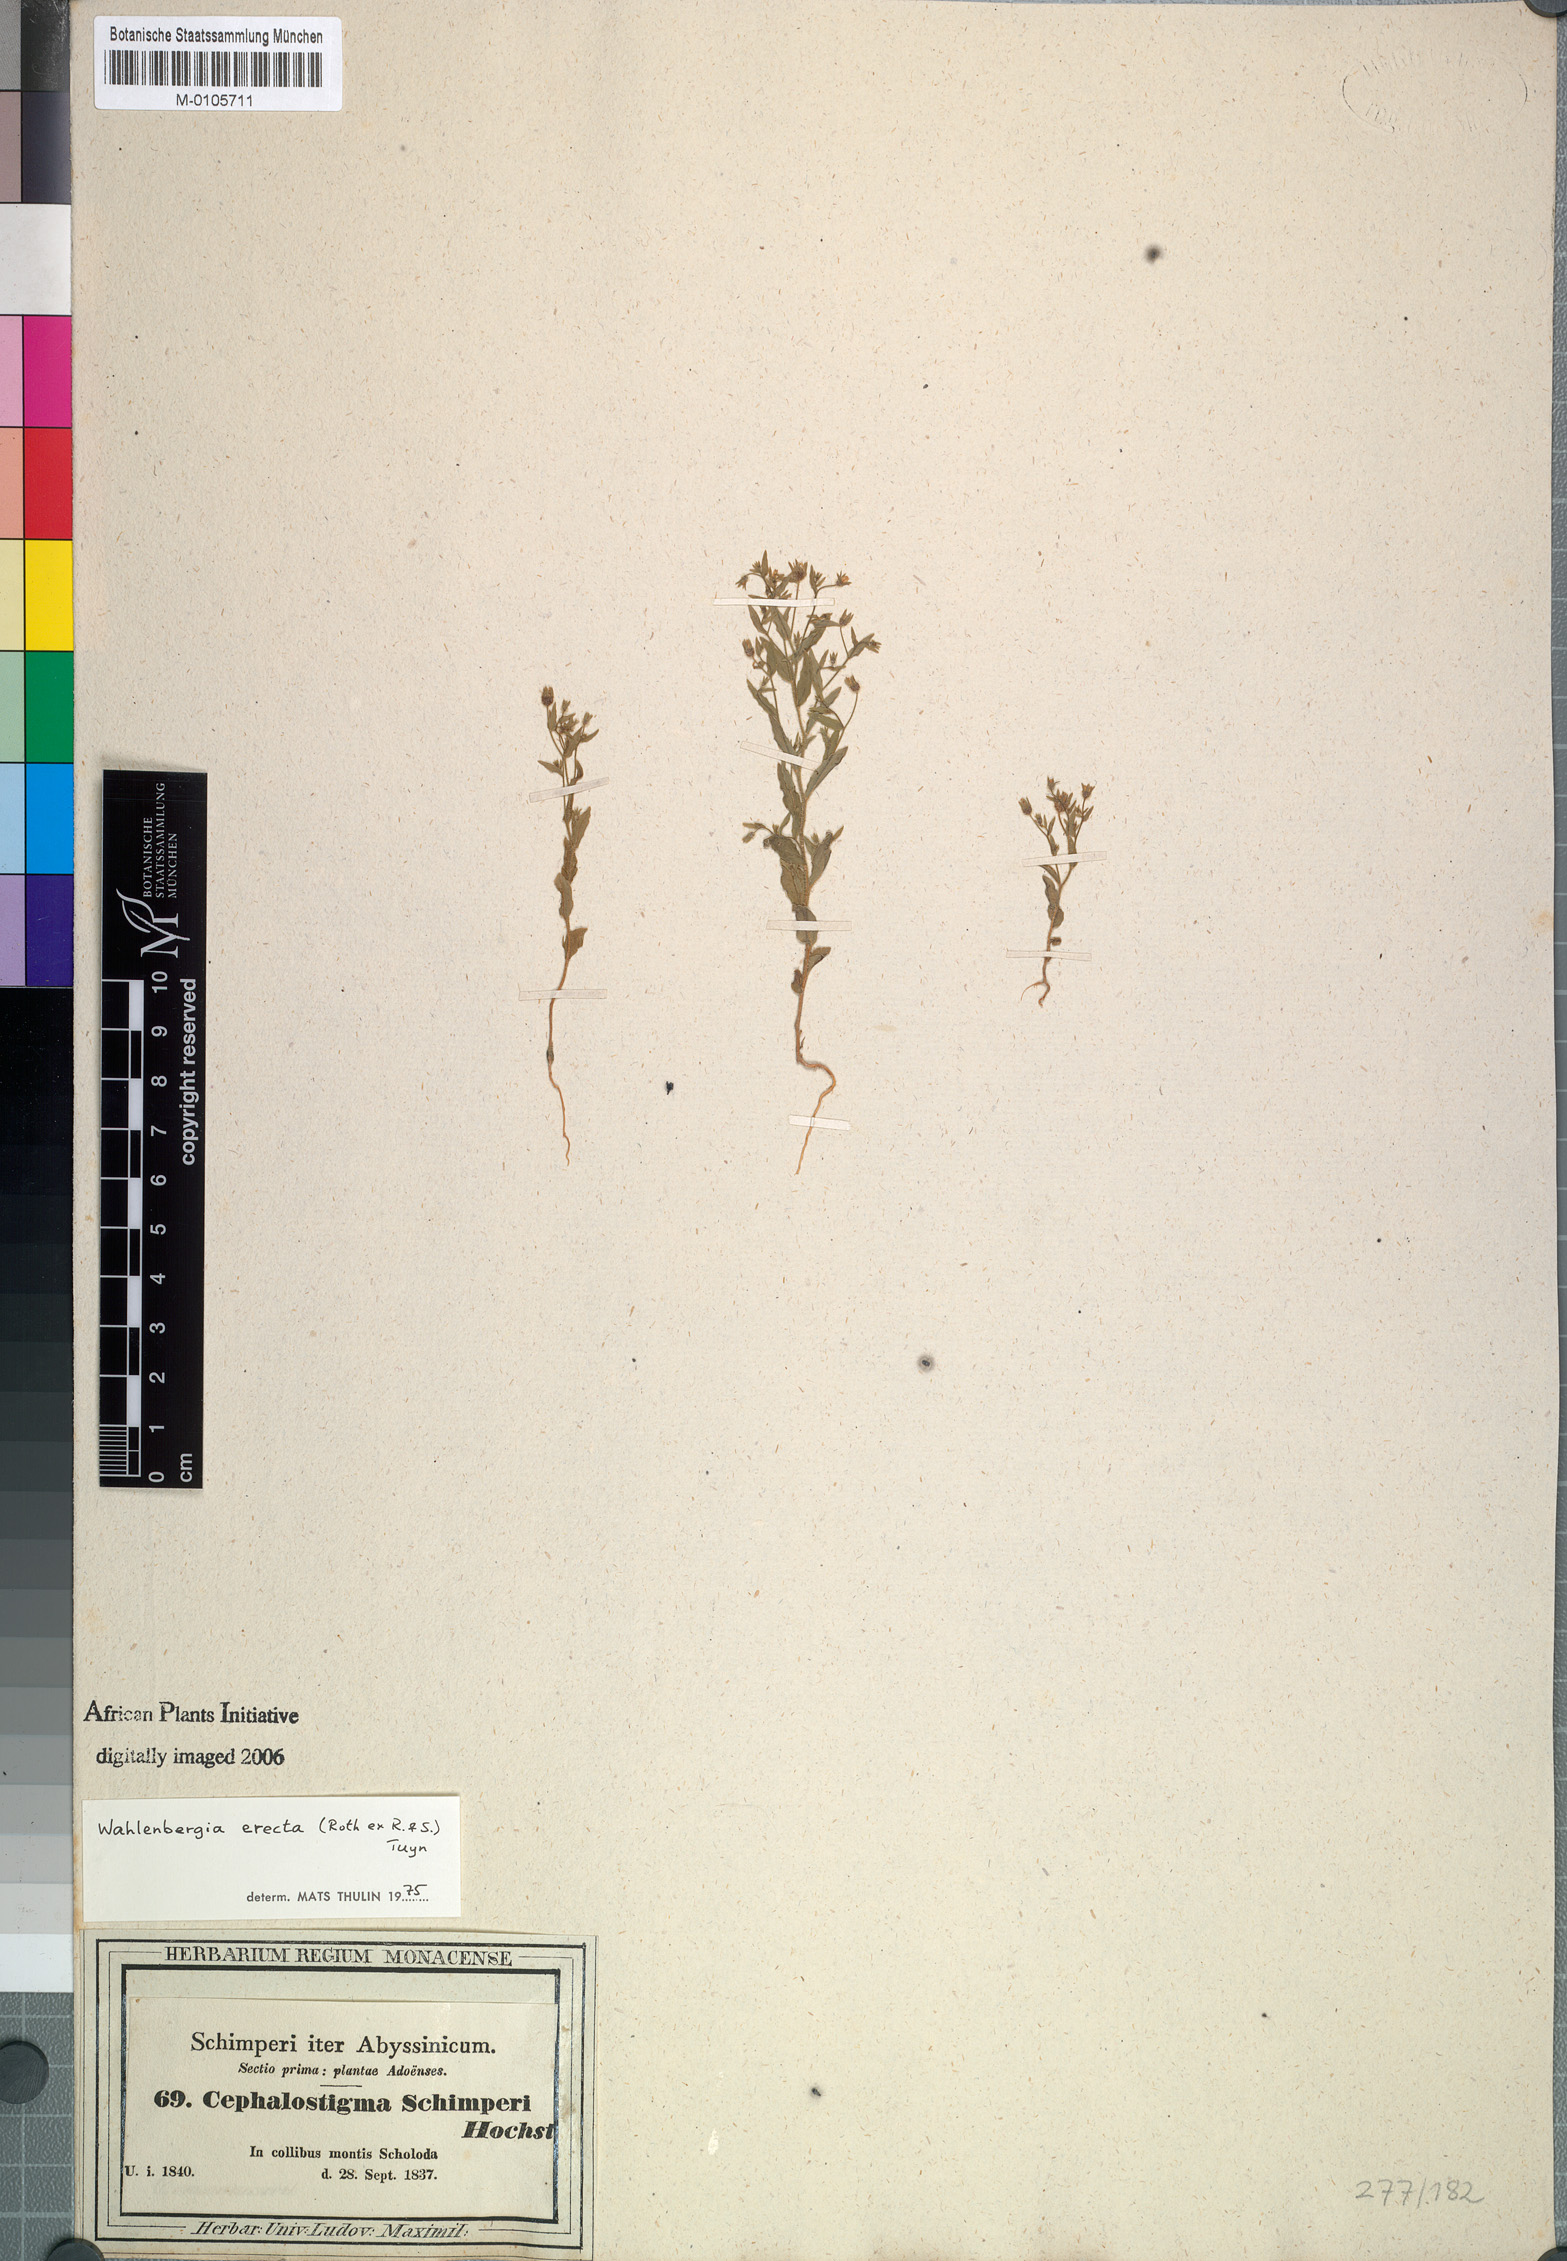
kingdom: Plantae
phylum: Tracheophyta
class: Magnoliopsida
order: Asterales
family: Campanulaceae
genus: Wahlenbergia
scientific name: Wahlenbergia erecta
